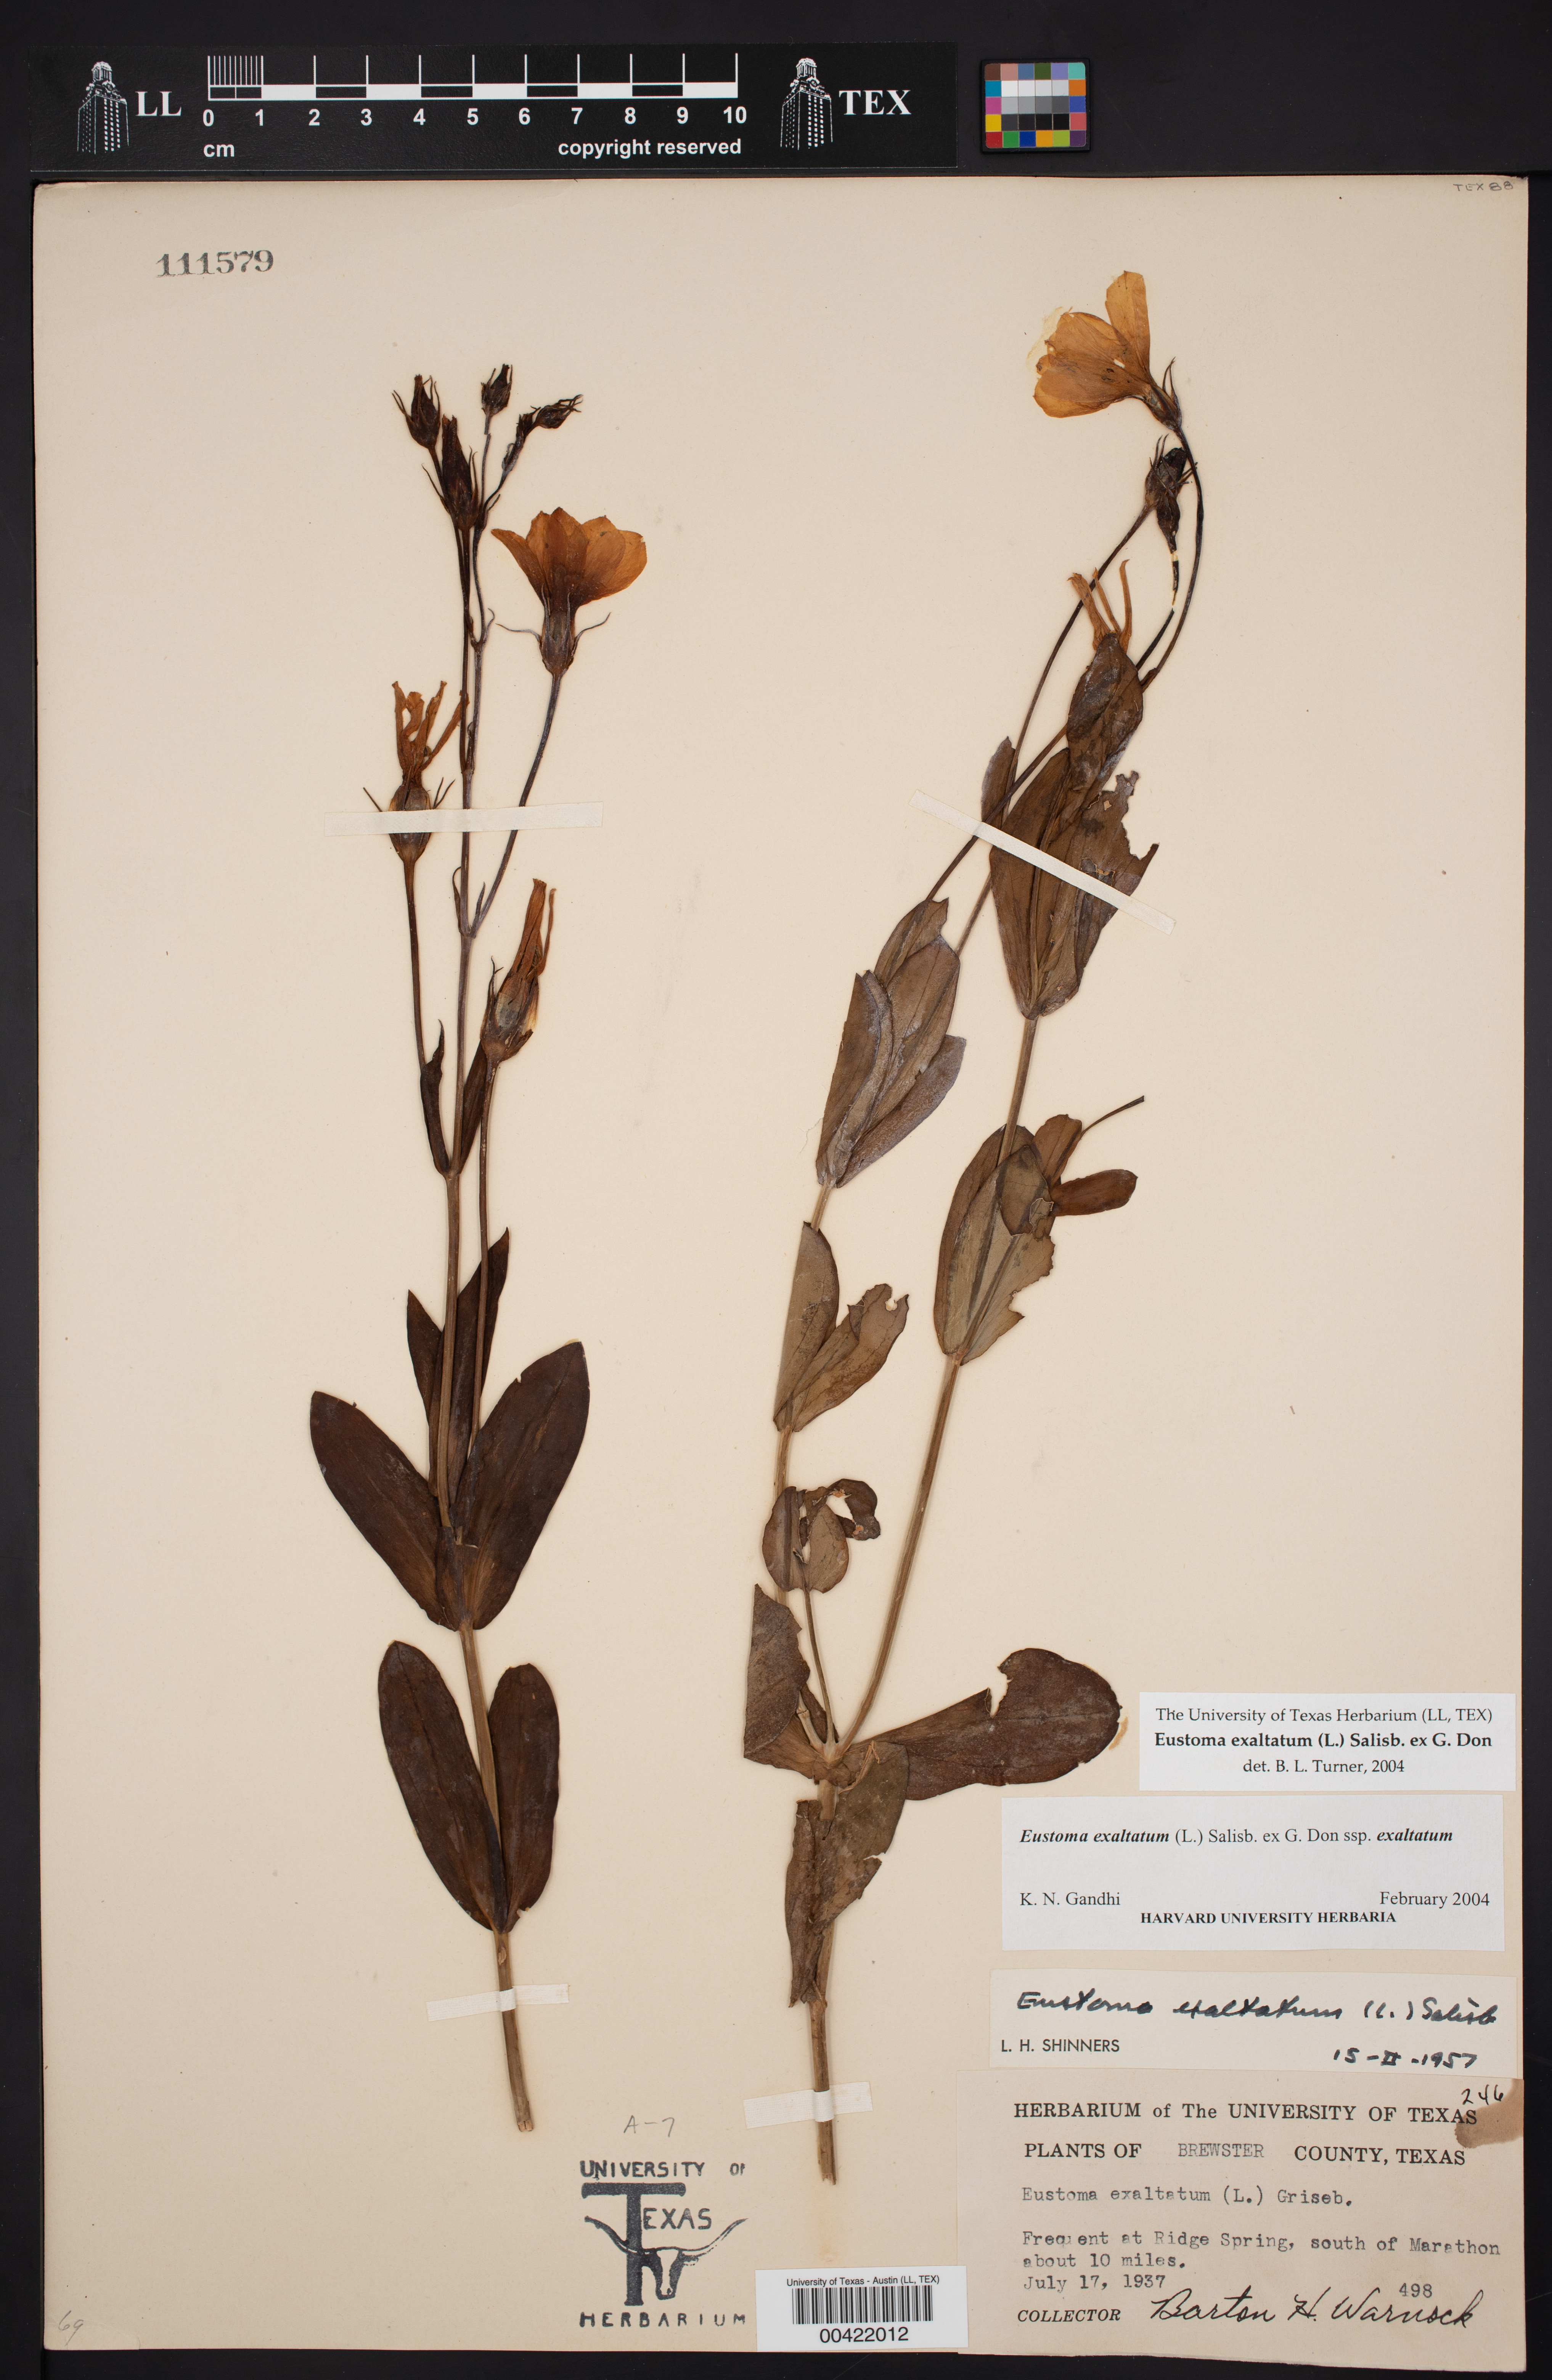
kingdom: Plantae
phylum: Tracheophyta
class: Magnoliopsida
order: Gentianales
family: Gentianaceae
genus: Eustoma
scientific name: Eustoma exaltatum
